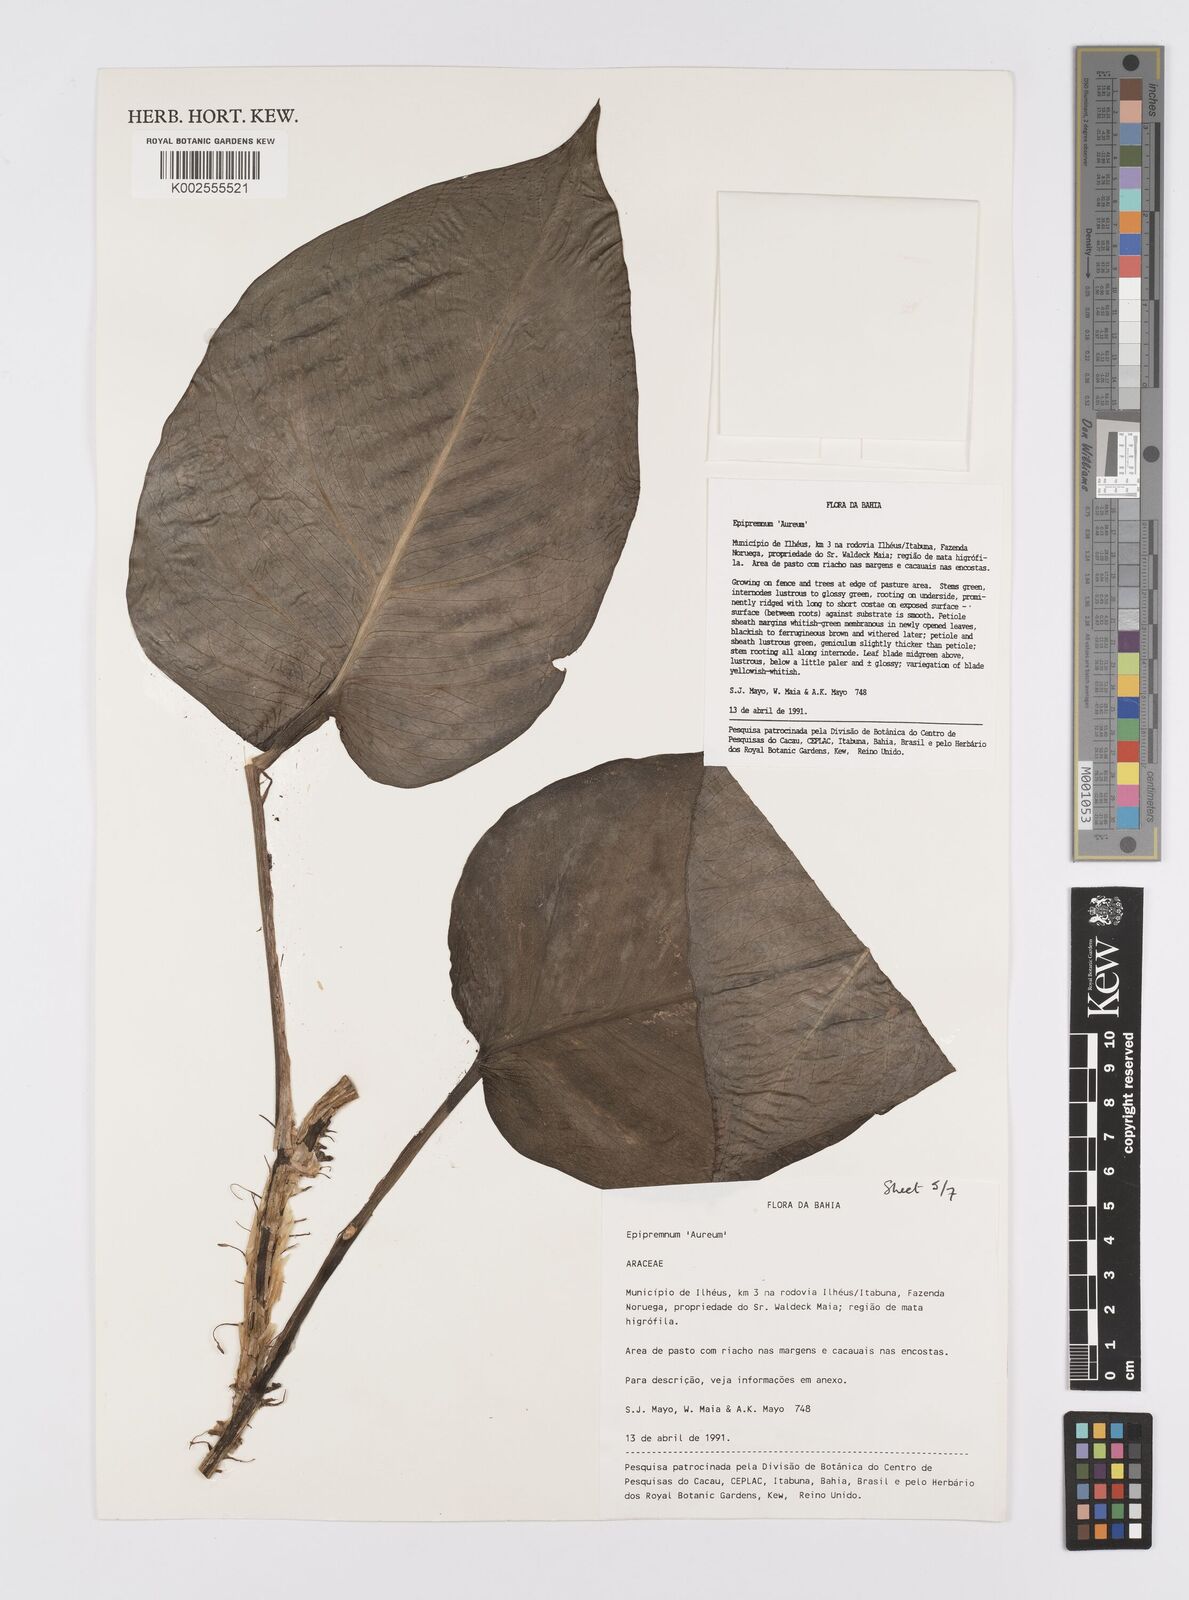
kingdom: Plantae
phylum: Tracheophyta
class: Liliopsida
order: Alismatales
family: Araceae
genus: Epipremnum
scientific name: Epipremnum aureum
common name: Golden hunter's-robe
